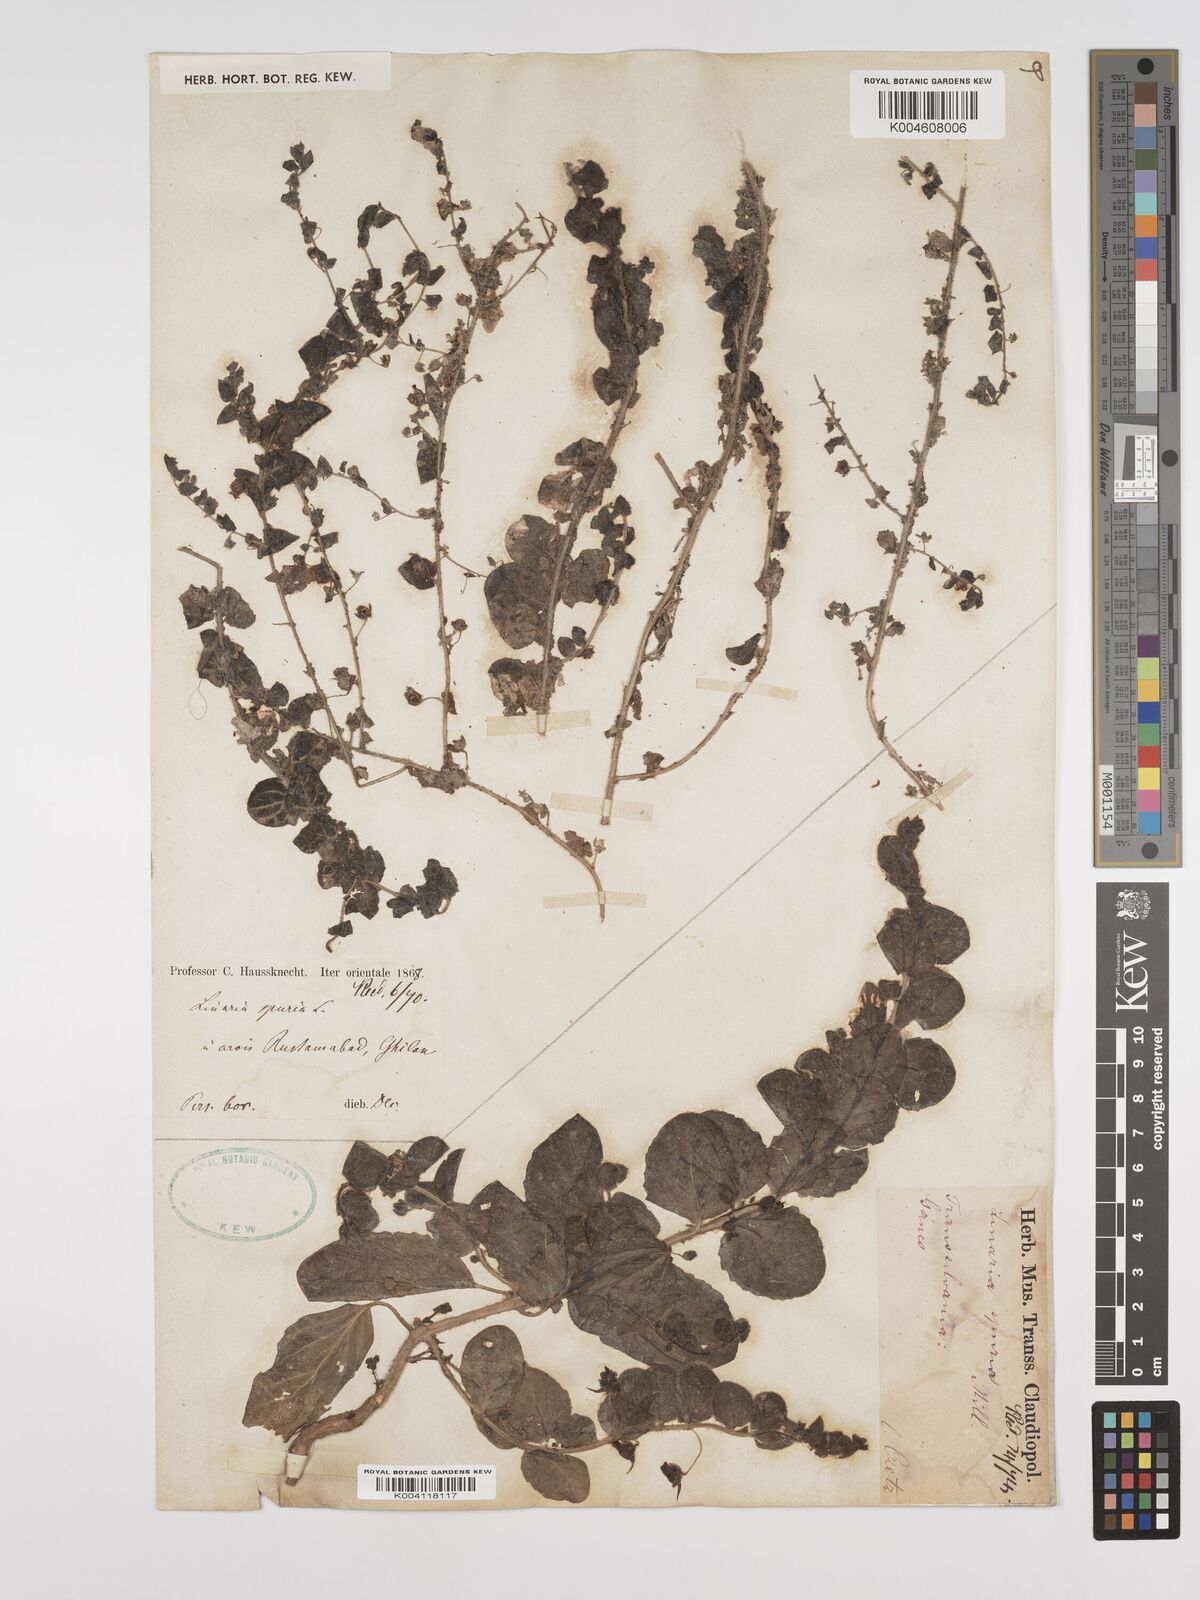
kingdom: Plantae
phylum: Tracheophyta
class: Magnoliopsida
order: Lamiales
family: Plantaginaceae
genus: Kickxia
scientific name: Kickxia spuria
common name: Round-leaved fluellen
